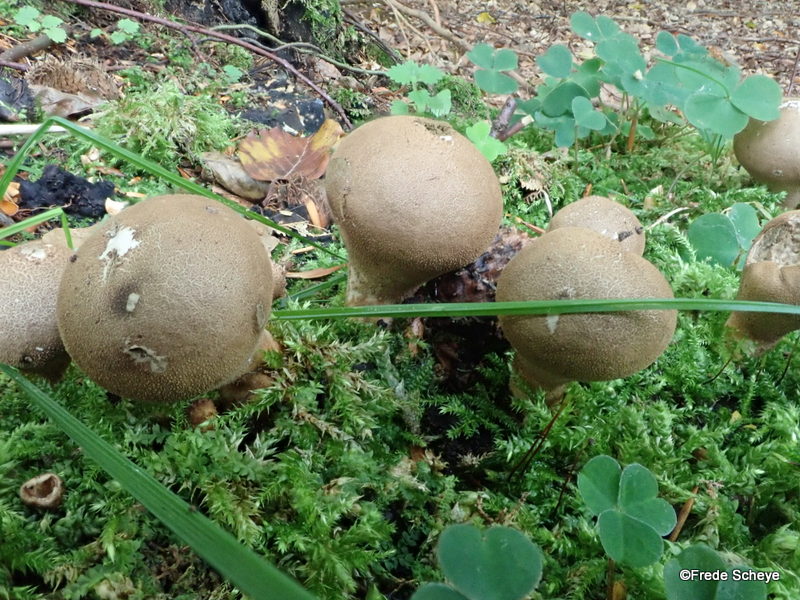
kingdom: Fungi
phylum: Basidiomycota
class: Agaricomycetes
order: Agaricales
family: Lycoperdaceae
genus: Apioperdon
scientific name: Apioperdon pyriforme
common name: pære-støvbold
